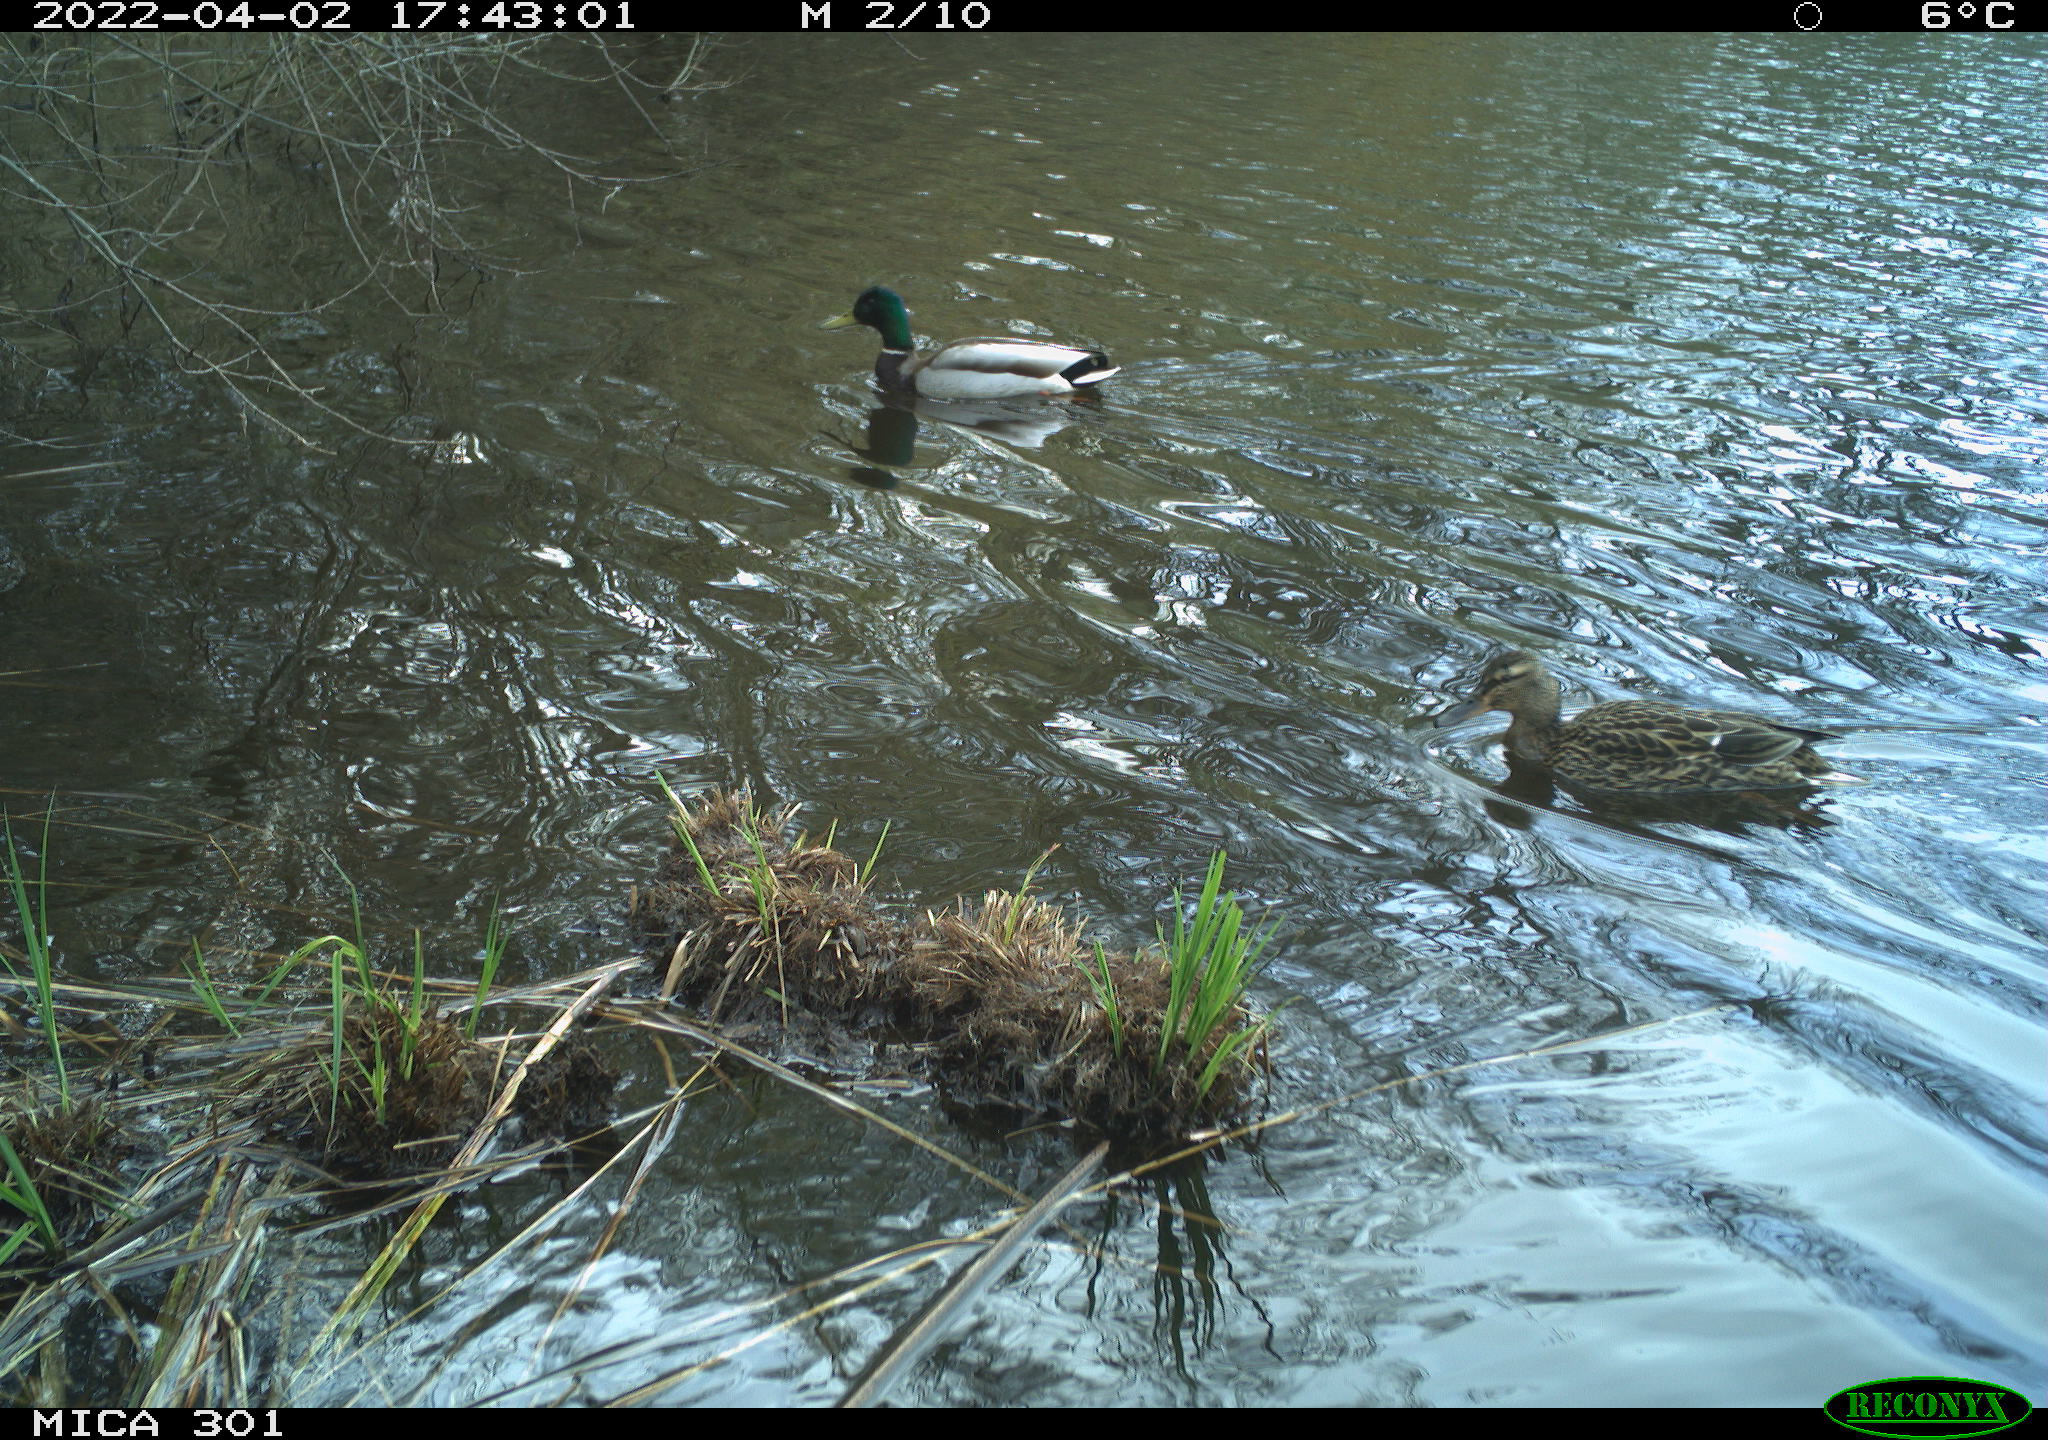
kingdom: Animalia
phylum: Chordata
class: Aves
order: Anseriformes
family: Anatidae
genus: Anas
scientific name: Anas platyrhynchos
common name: Mallard
